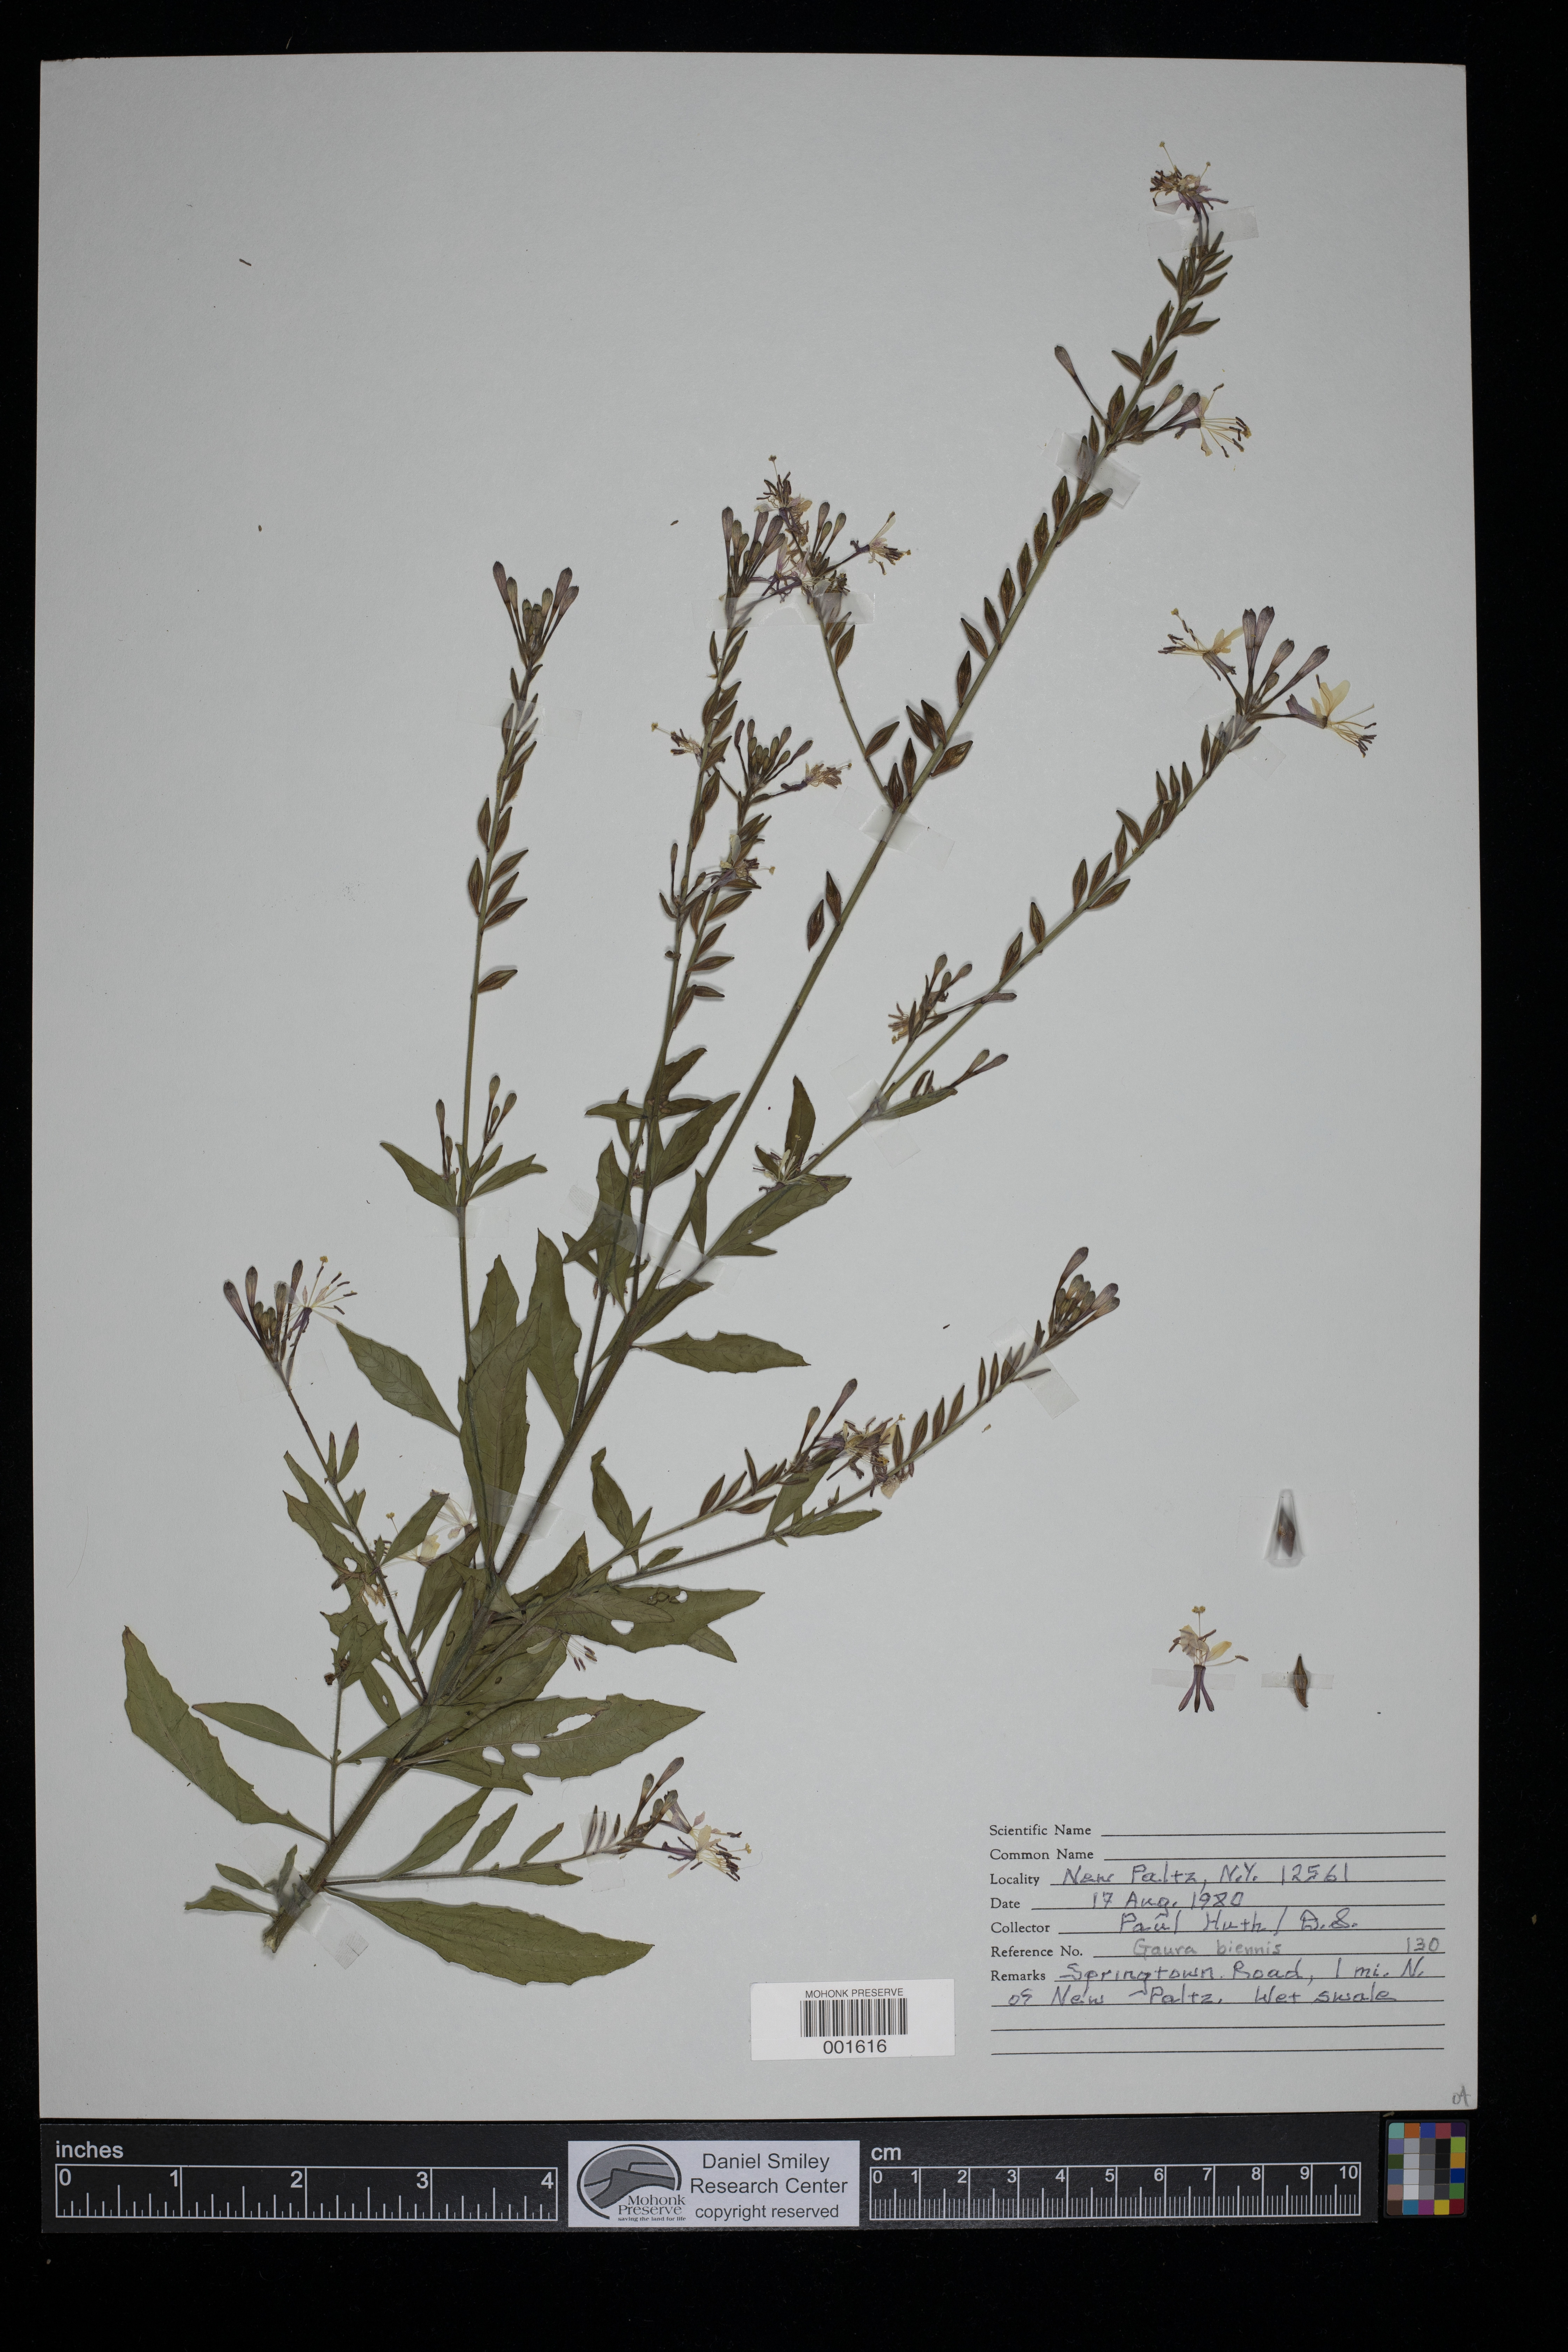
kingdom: Plantae
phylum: Tracheophyta
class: Magnoliopsida
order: Myrtales
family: Onagraceae
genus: Oenothera
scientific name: Oenothera gaura
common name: Biennial beeblossom
